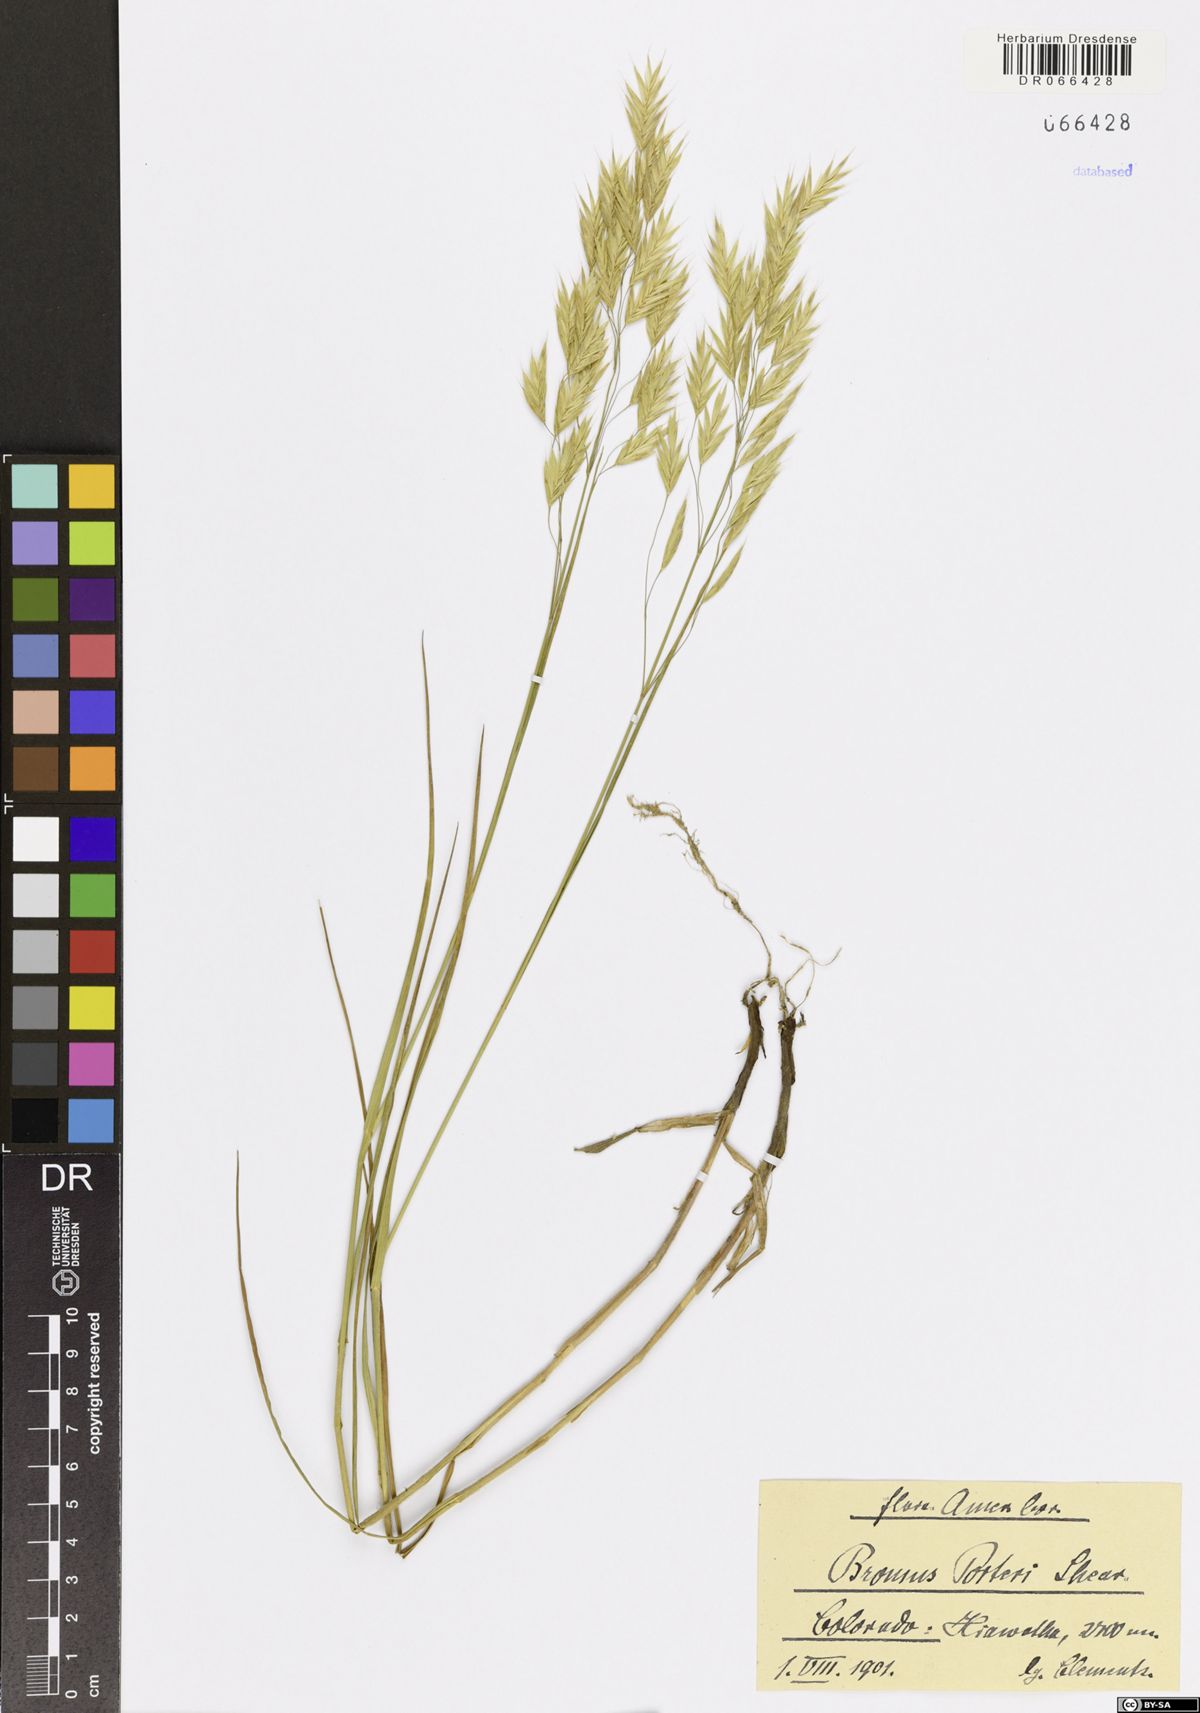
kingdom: Plantae
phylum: Tracheophyta
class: Liliopsida
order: Poales
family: Poaceae
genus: Bromus
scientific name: Bromus porteri
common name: Nodding brome
